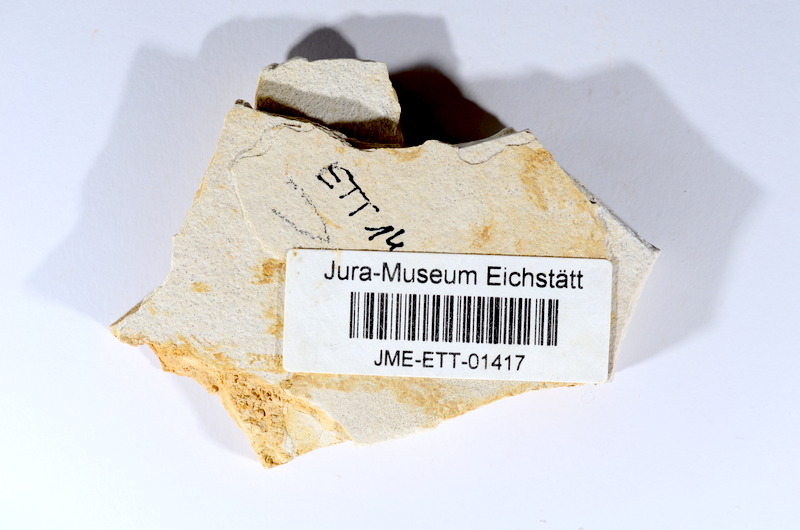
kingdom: Animalia
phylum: Chordata
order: Salmoniformes
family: Orthogonikleithridae
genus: Orthogonikleithrus
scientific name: Orthogonikleithrus hoelli
